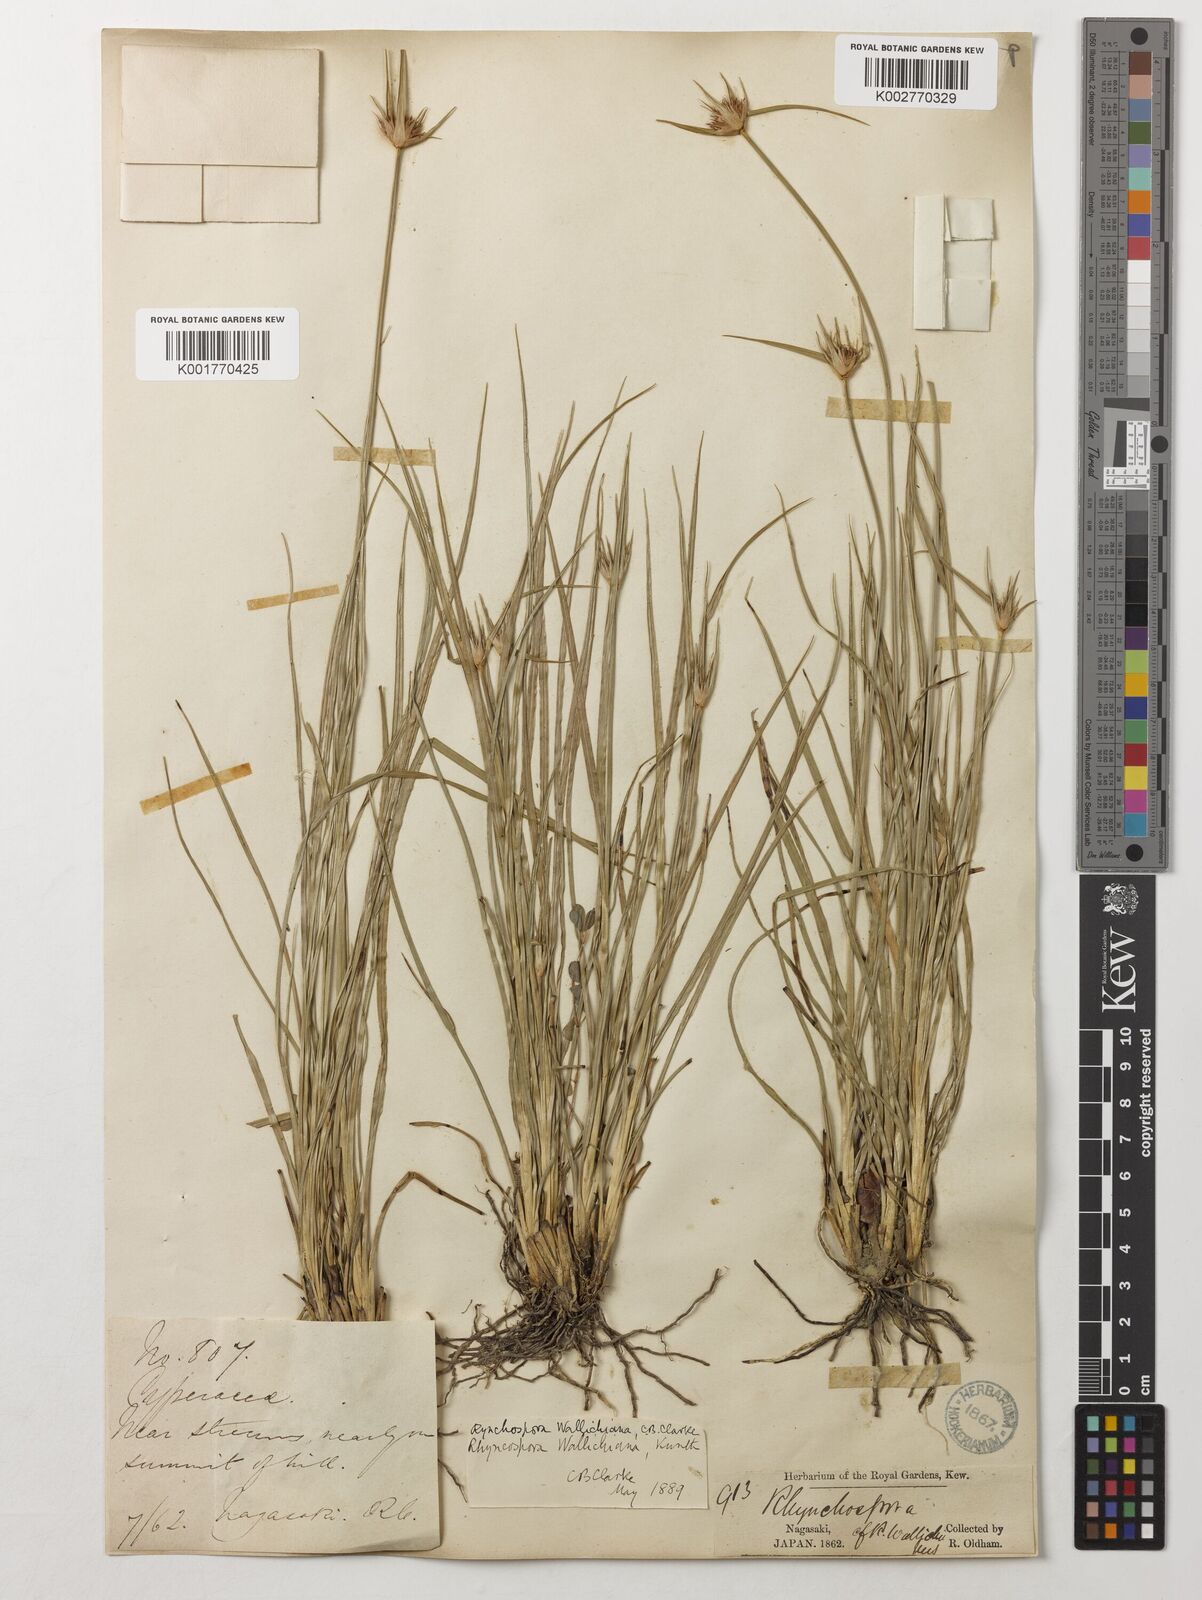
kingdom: Plantae
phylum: Tracheophyta
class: Liliopsida
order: Poales
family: Cyperaceae
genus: Rhynchospora
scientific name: Rhynchospora rubra
